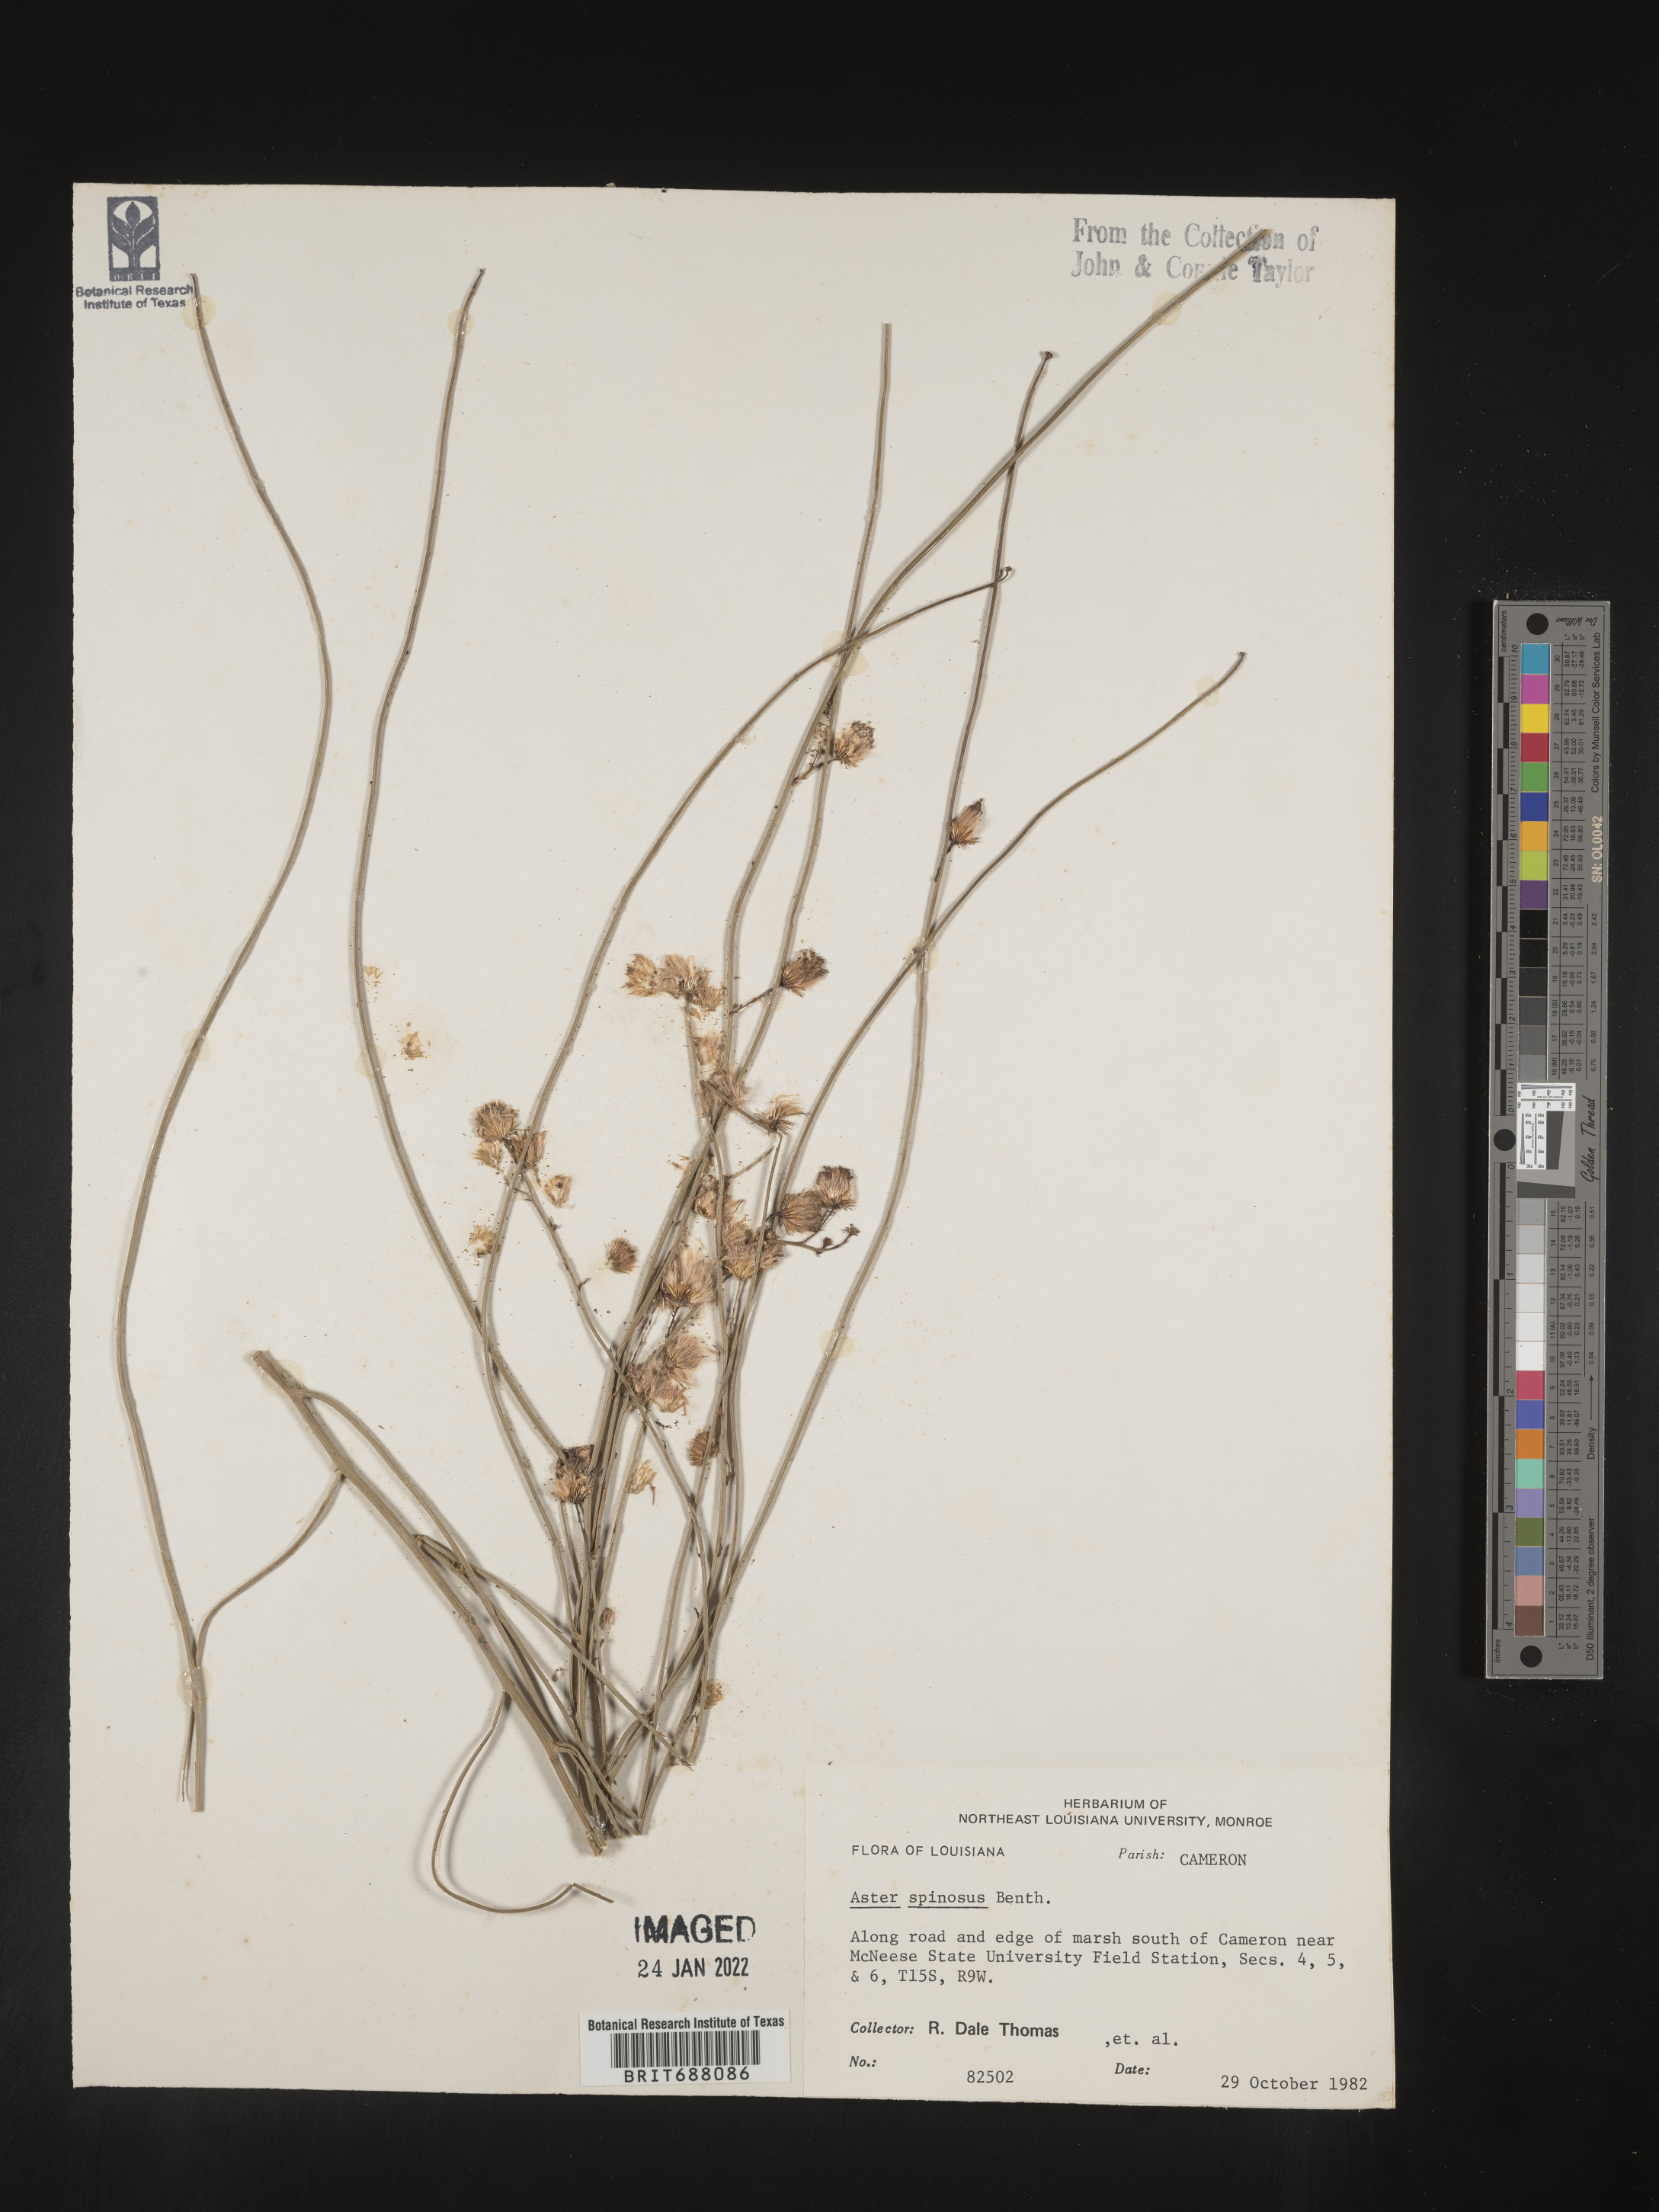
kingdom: Plantae
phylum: Tracheophyta
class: Magnoliopsida
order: Asterales
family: Asteraceae
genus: Chloracantha
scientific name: Chloracantha spinosa
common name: Mexican devilweed
